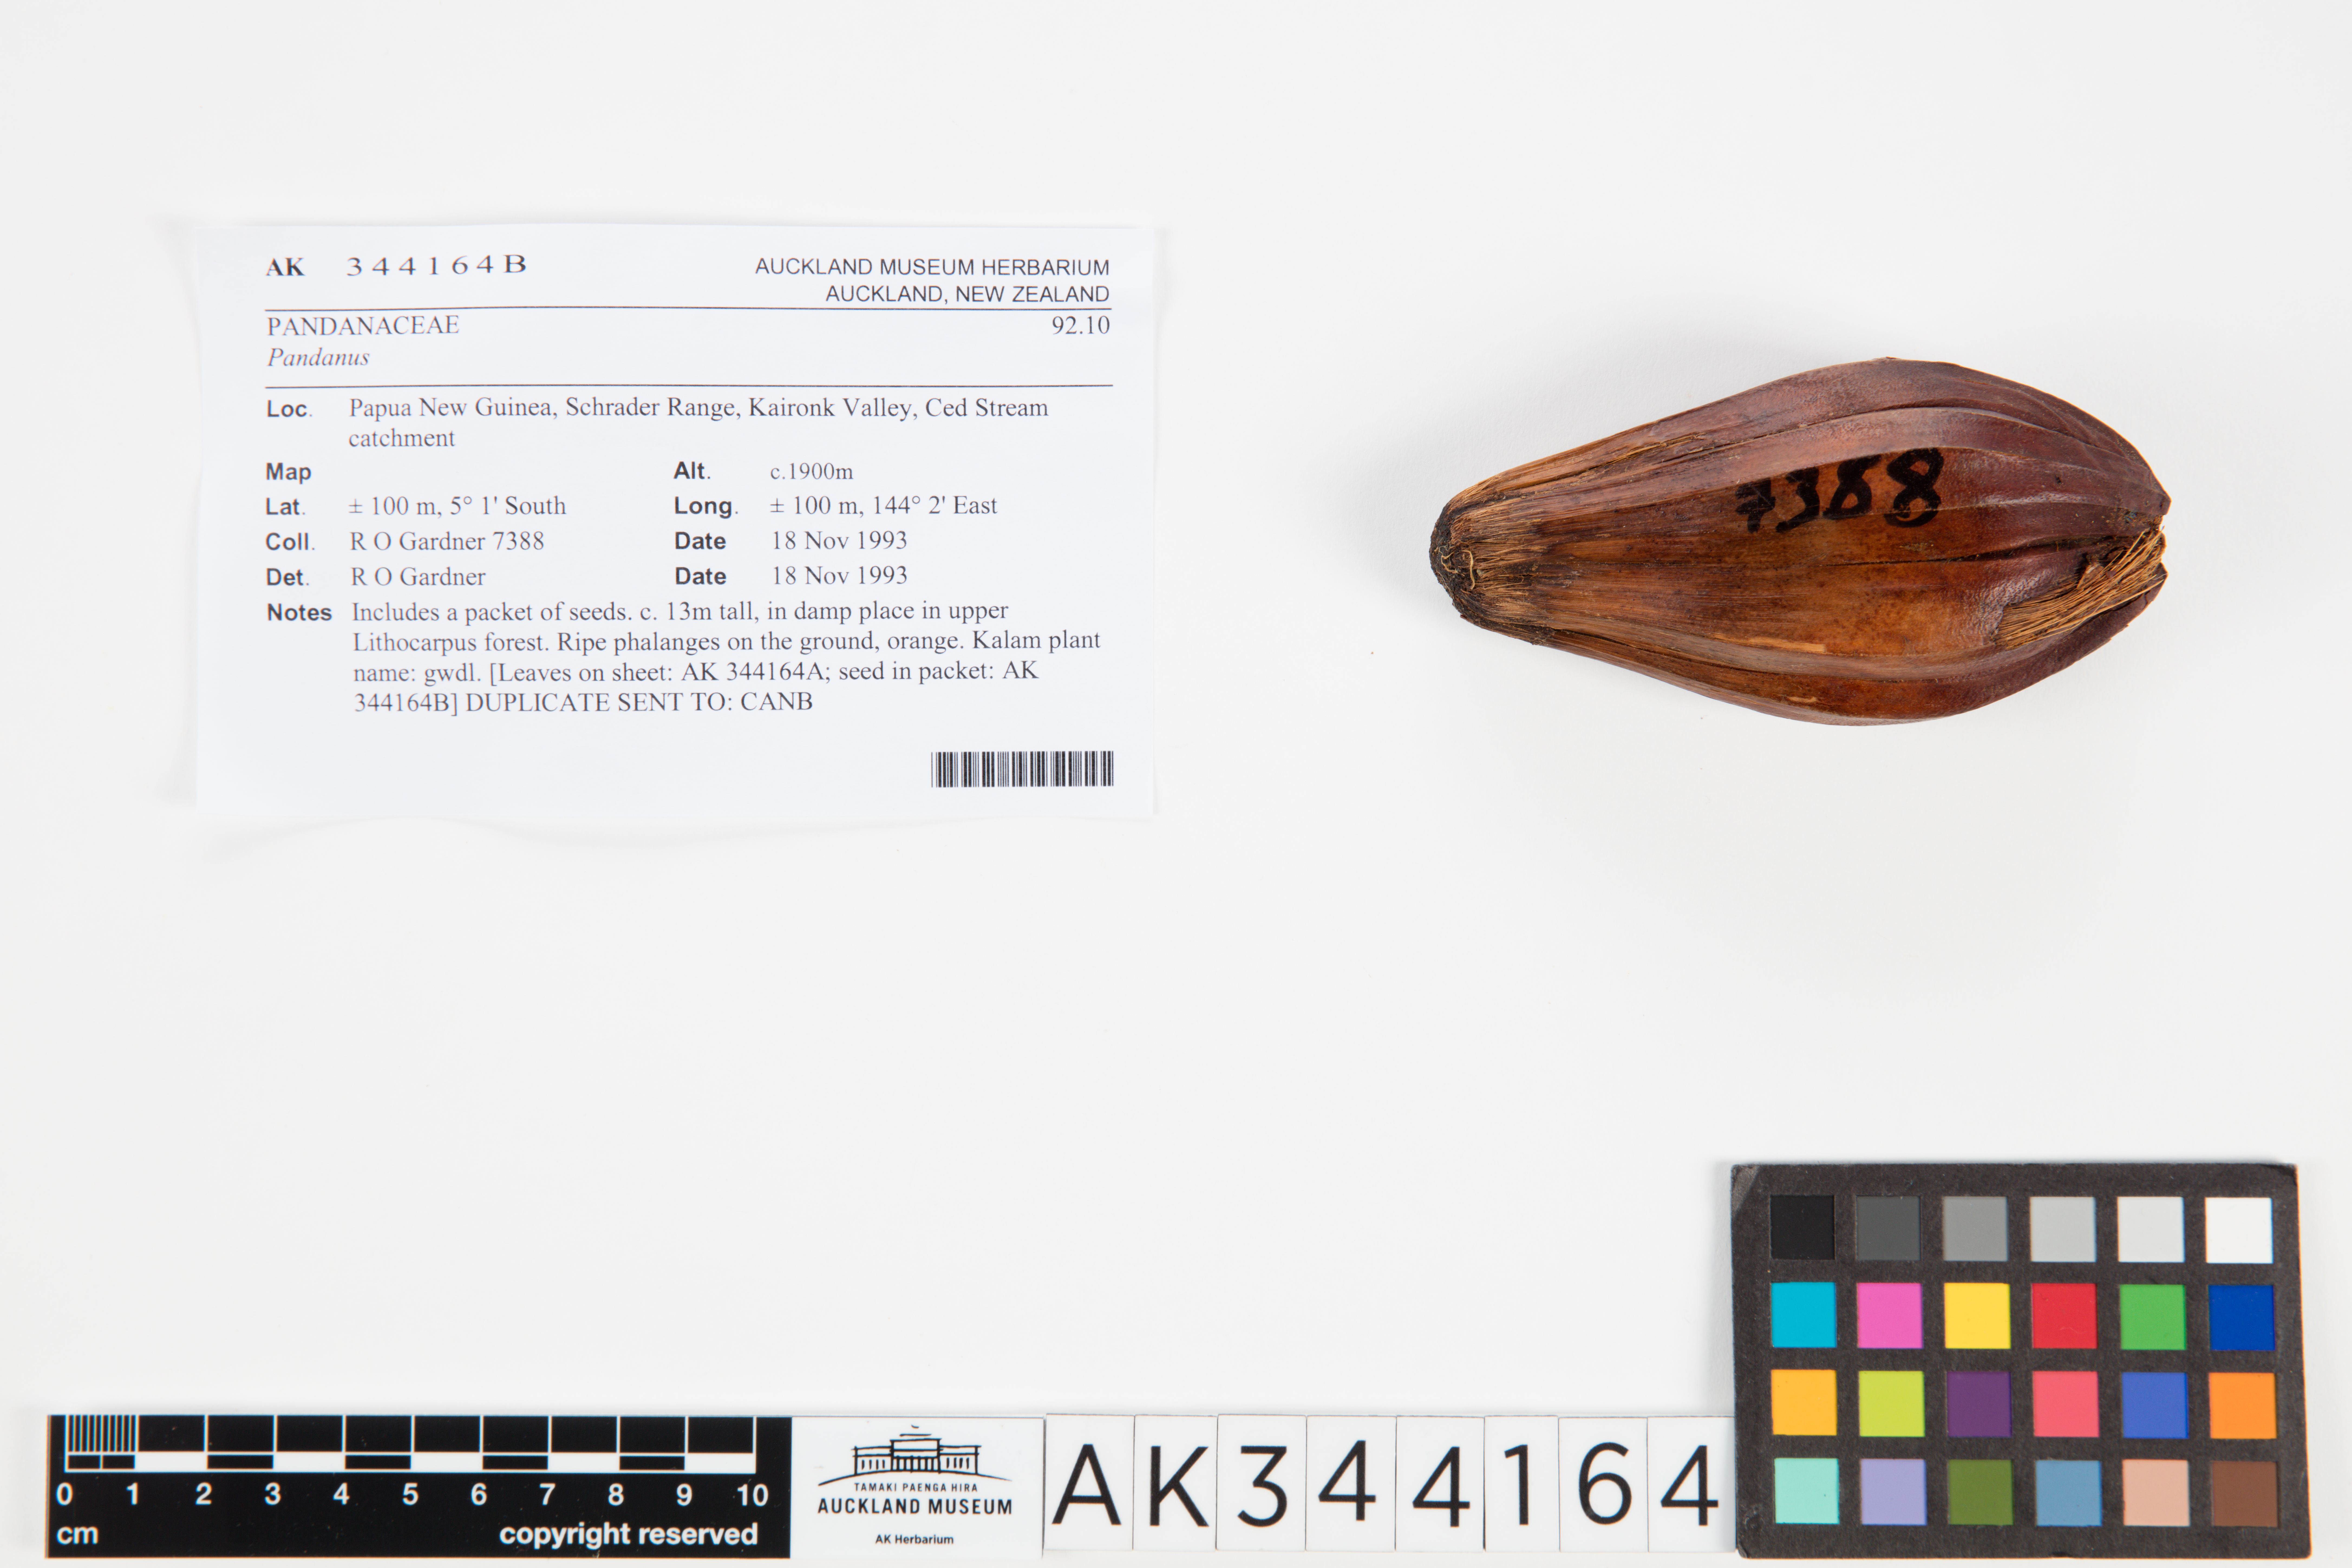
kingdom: Plantae
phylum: Tracheophyta
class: Liliopsida
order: Pandanales
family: Pandanaceae
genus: Pandanus
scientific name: Pandanus
